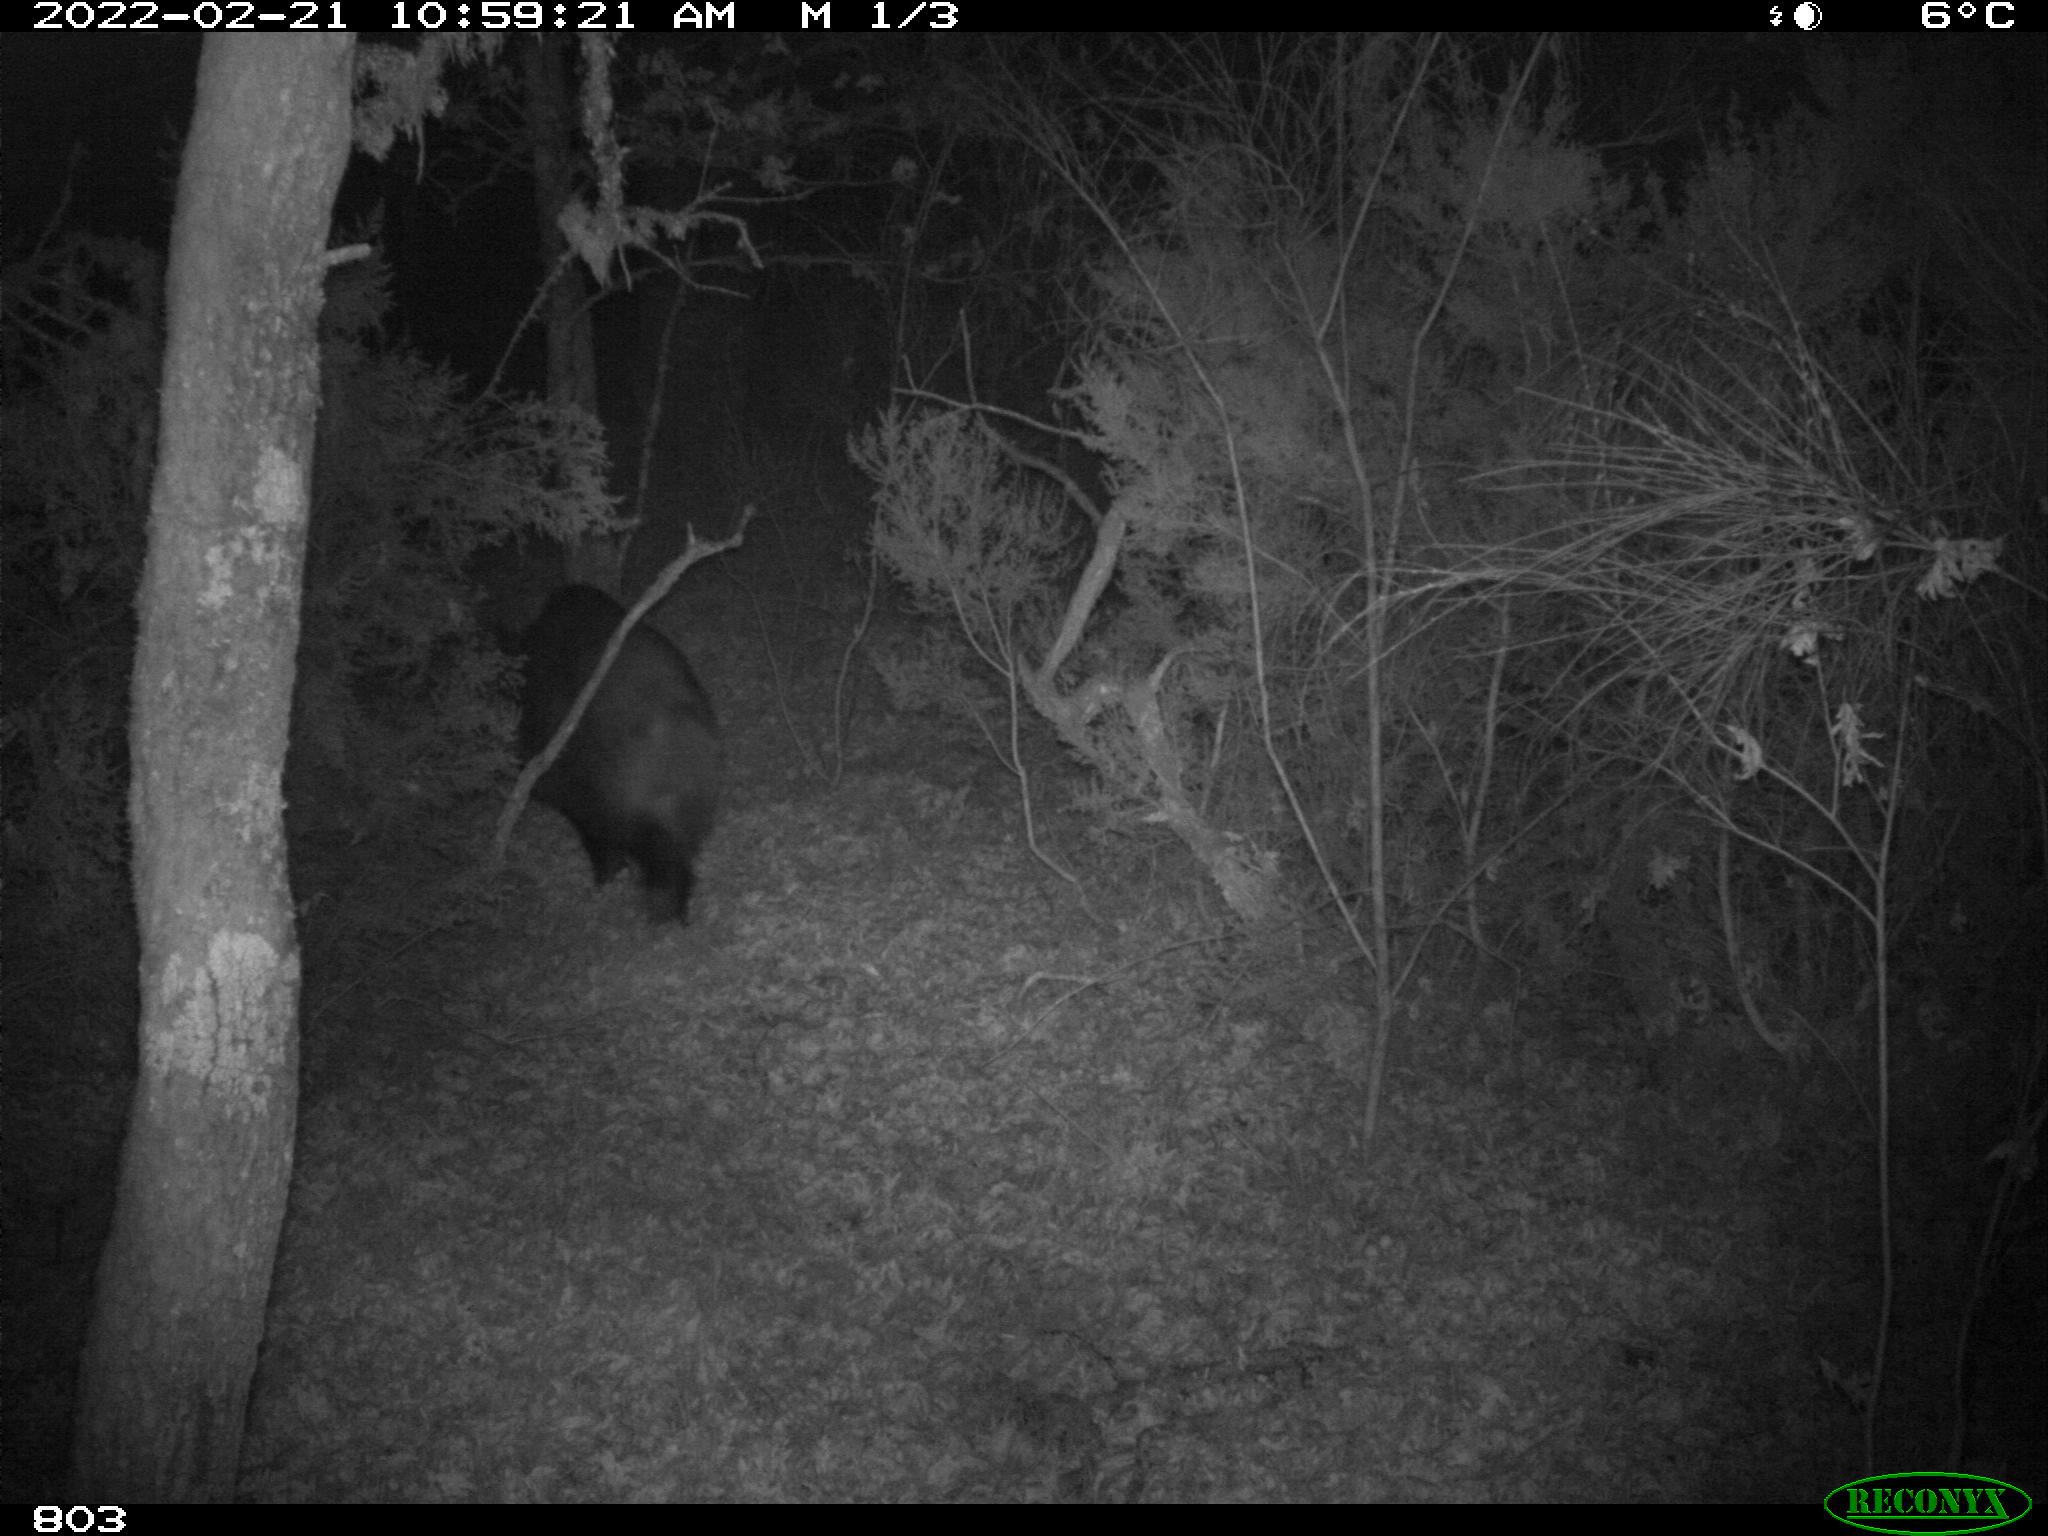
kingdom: Animalia
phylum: Chordata
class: Mammalia
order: Artiodactyla
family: Suidae
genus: Sus
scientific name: Sus scrofa
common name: Wild boar
